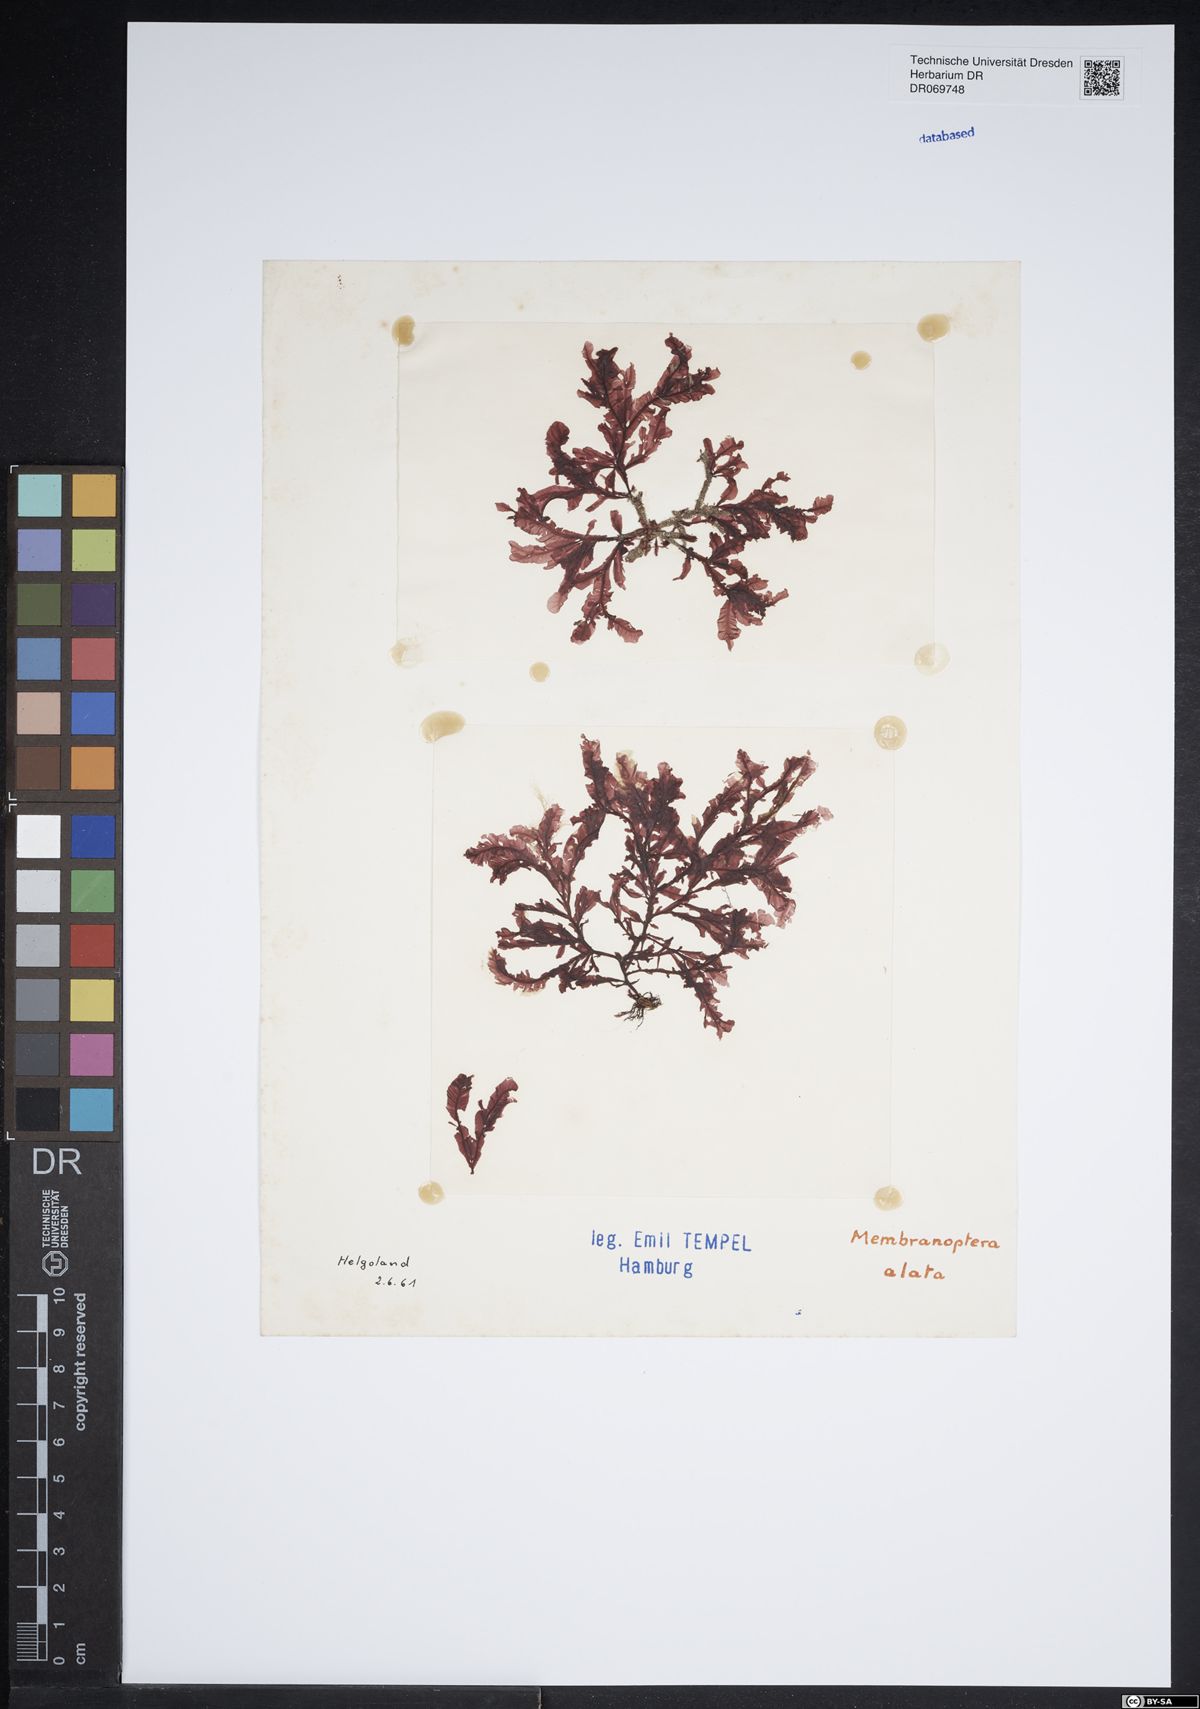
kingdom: Plantae
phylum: Rhodophyta
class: Florideophyceae
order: Ceramiales
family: Delesseriaceae
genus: Membranoptera
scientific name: Membranoptera alata
